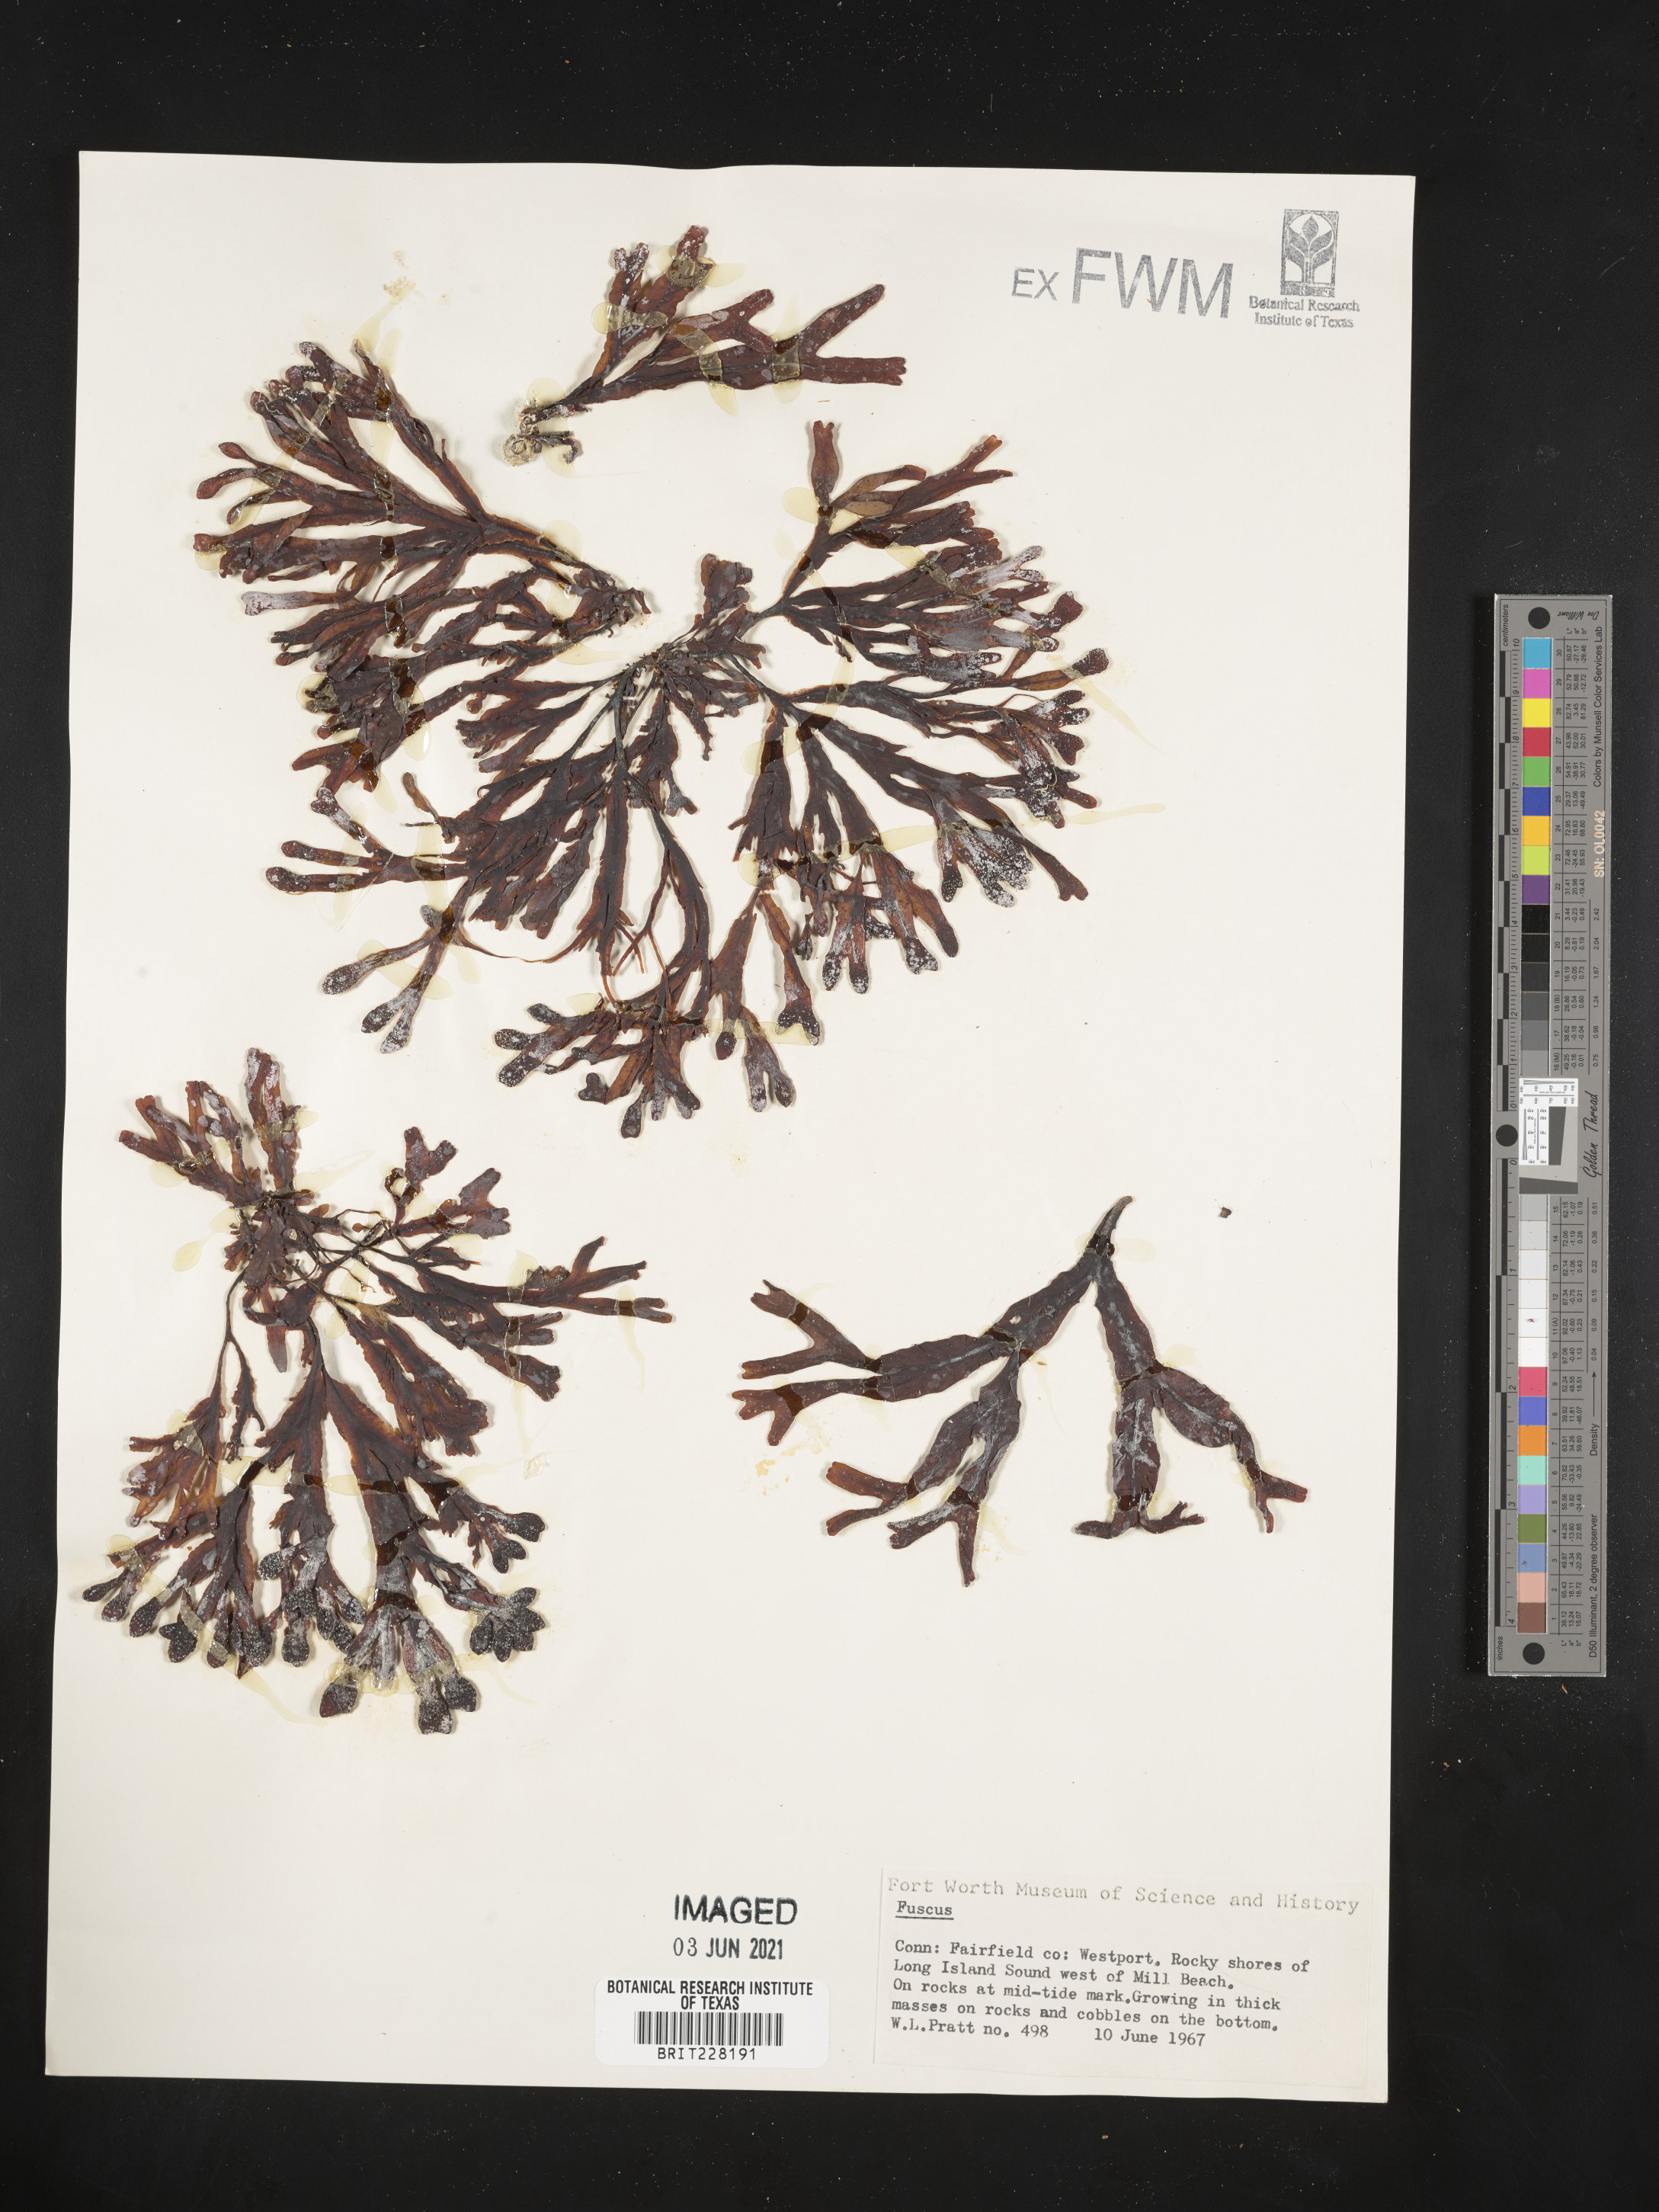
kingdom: Animalia
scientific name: Animalia
